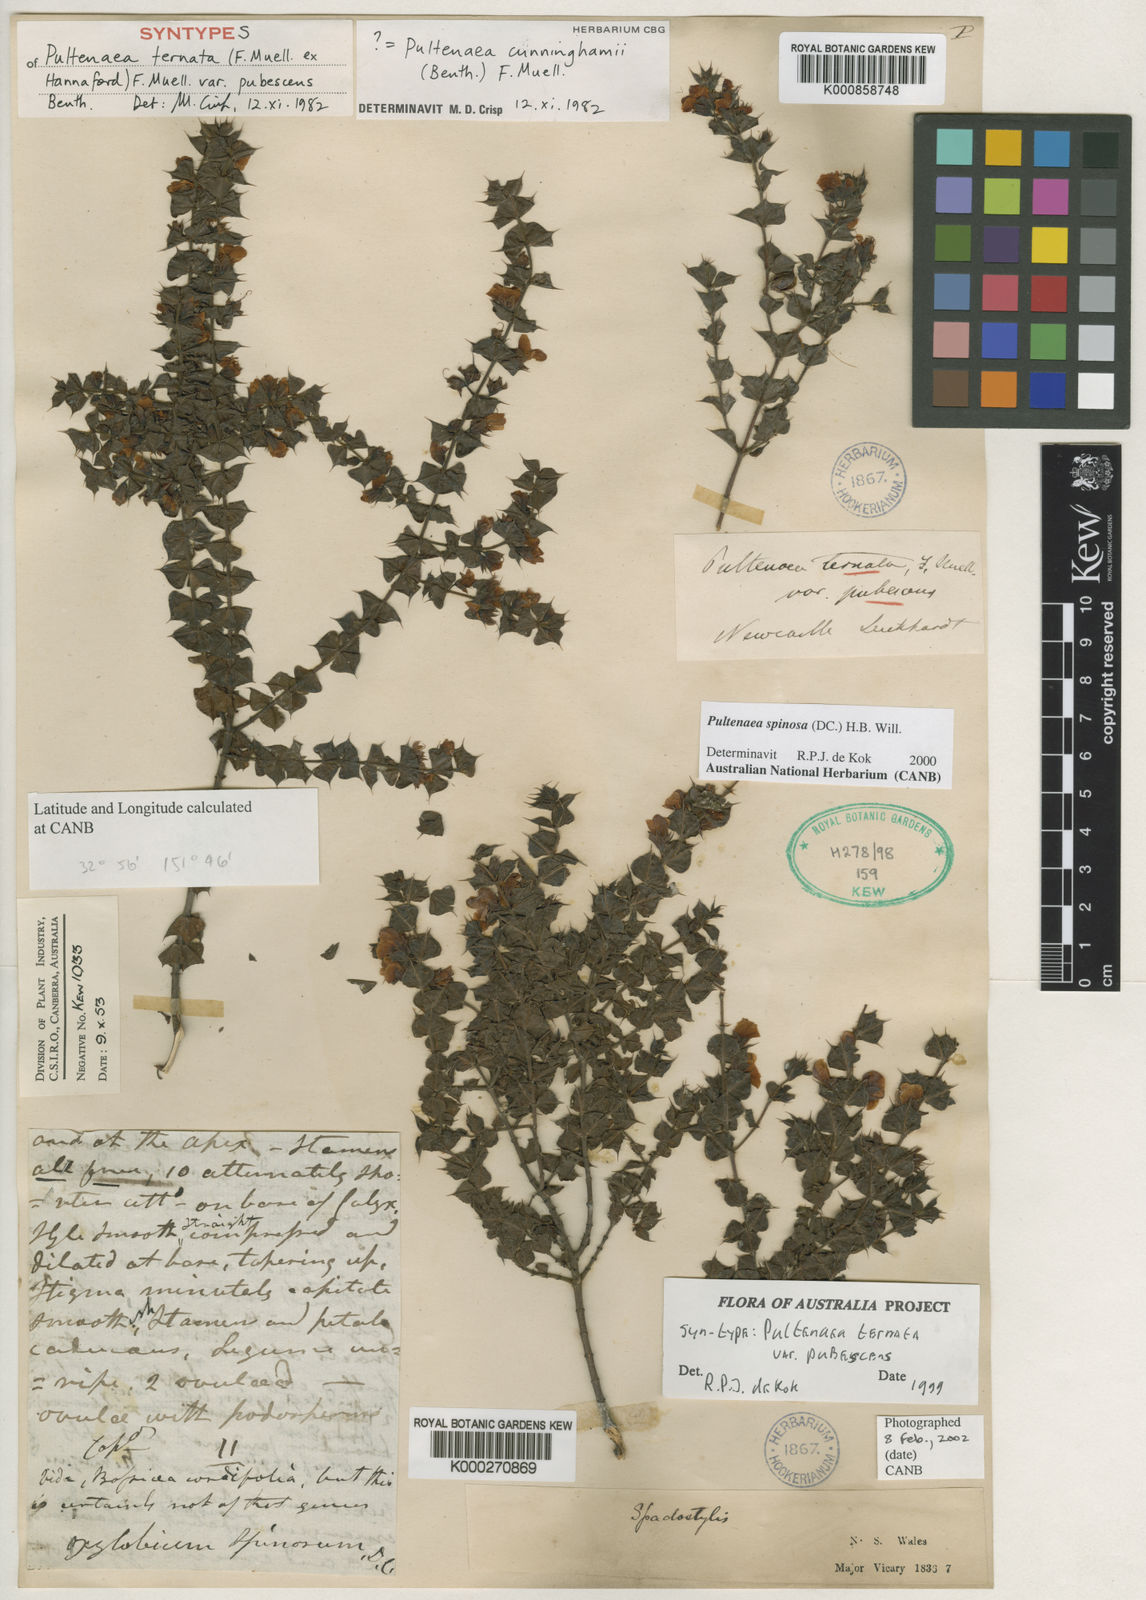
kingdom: Plantae
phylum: Tracheophyta
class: Magnoliopsida
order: Fabales
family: Fabaceae
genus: Pultenaea
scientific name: Pultenaea spinosa
